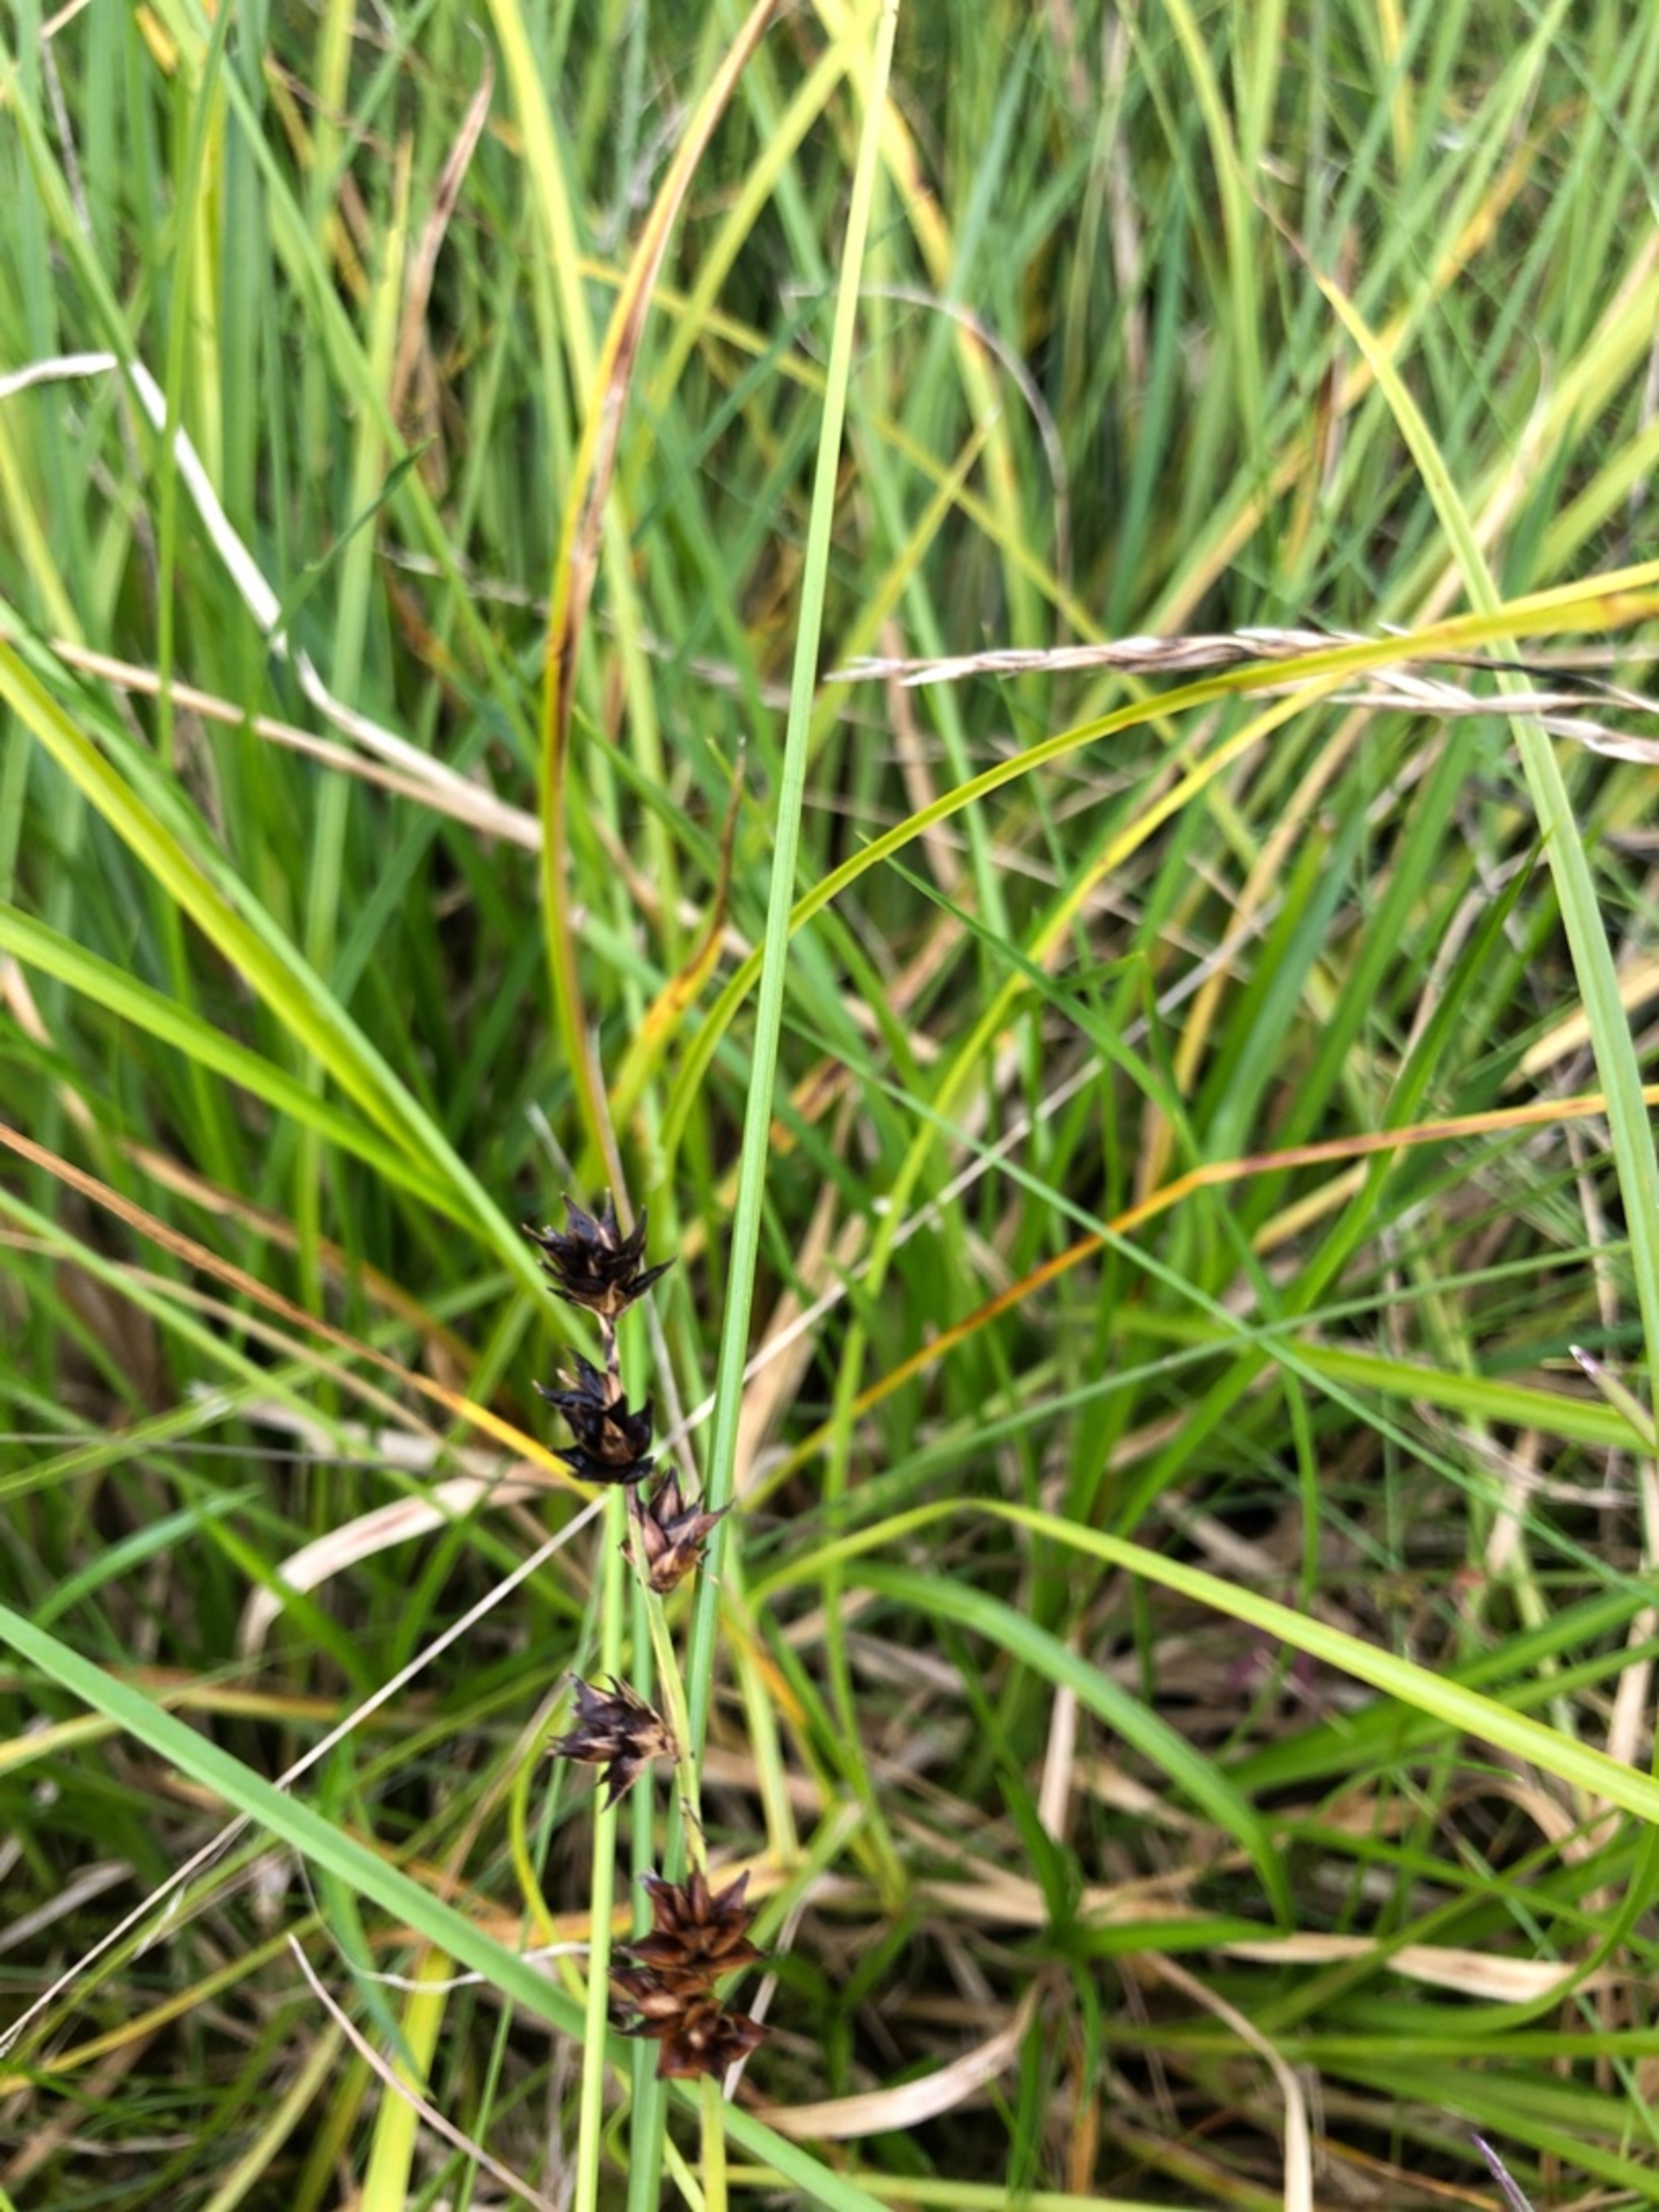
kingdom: Plantae
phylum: Tracheophyta
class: Liliopsida
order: Poales
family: Cyperaceae
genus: Carex
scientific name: Carex divulsa
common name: Mellembrudt star
